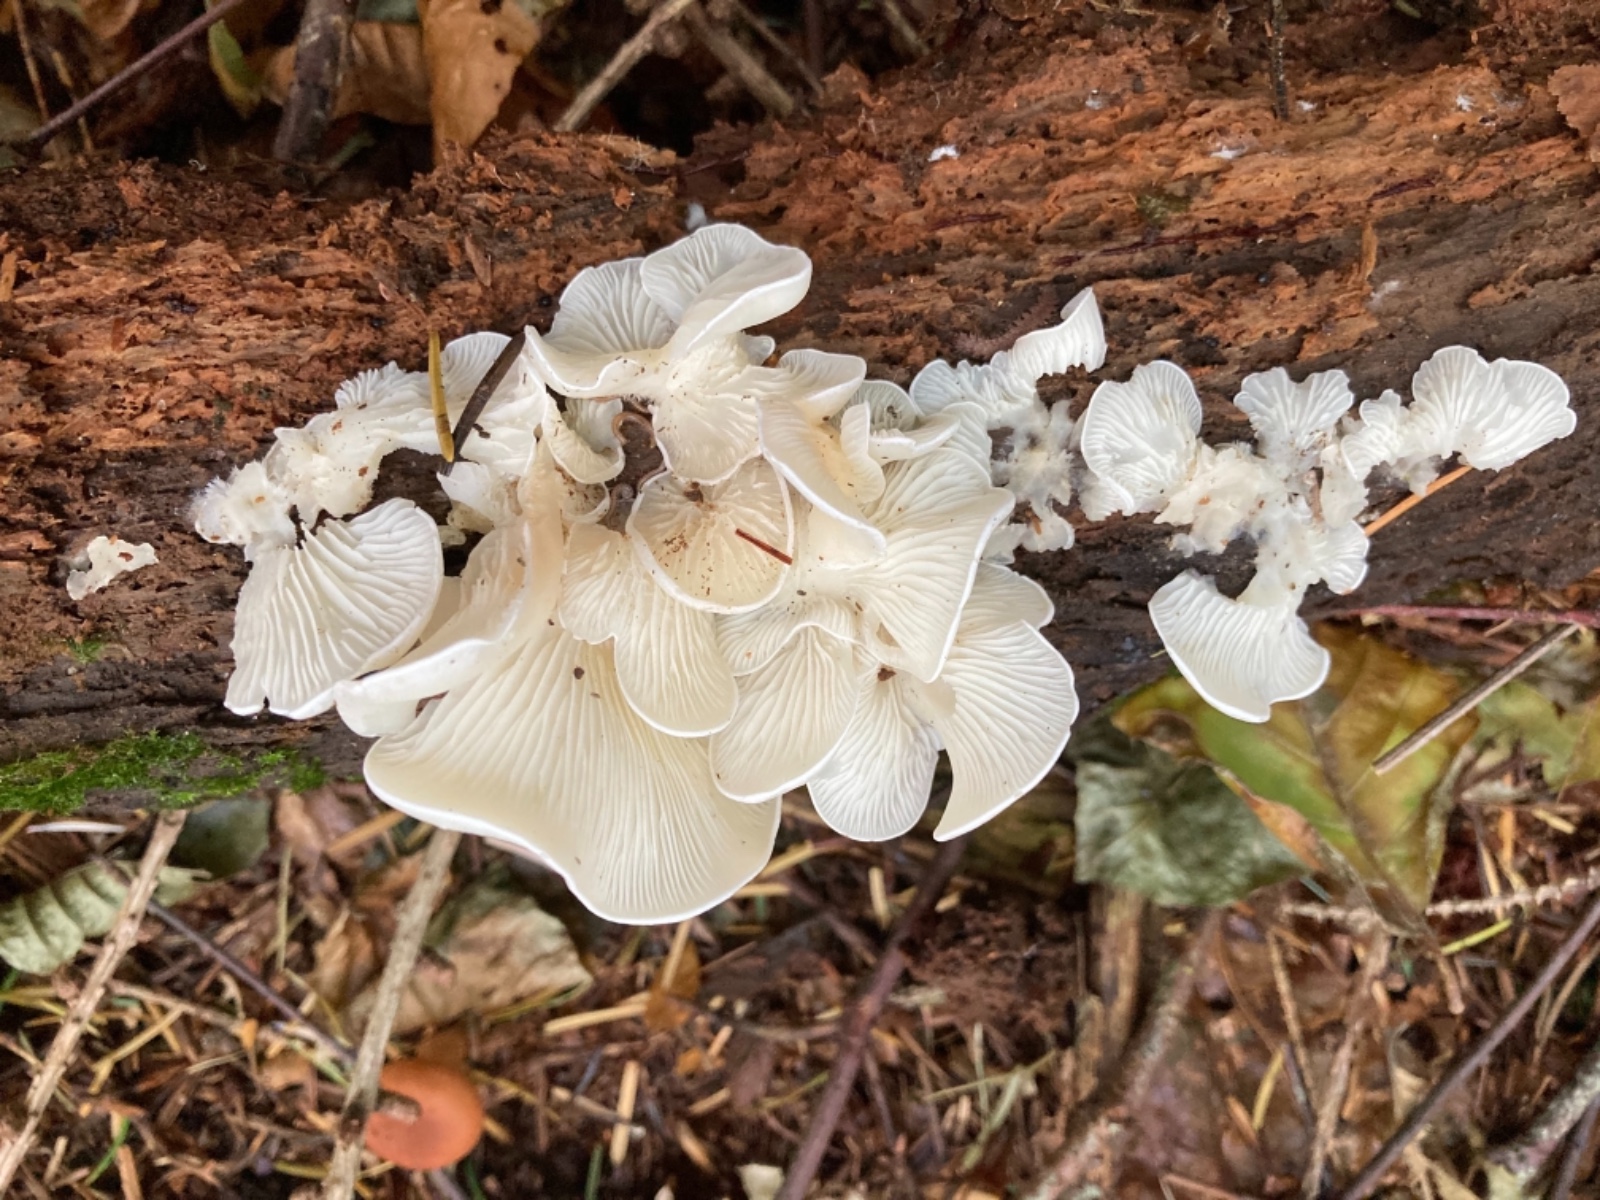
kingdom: Fungi
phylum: Basidiomycota
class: Agaricomycetes
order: Agaricales
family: Marasmiaceae
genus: Pleurocybella
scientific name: Pleurocybella porrigens
